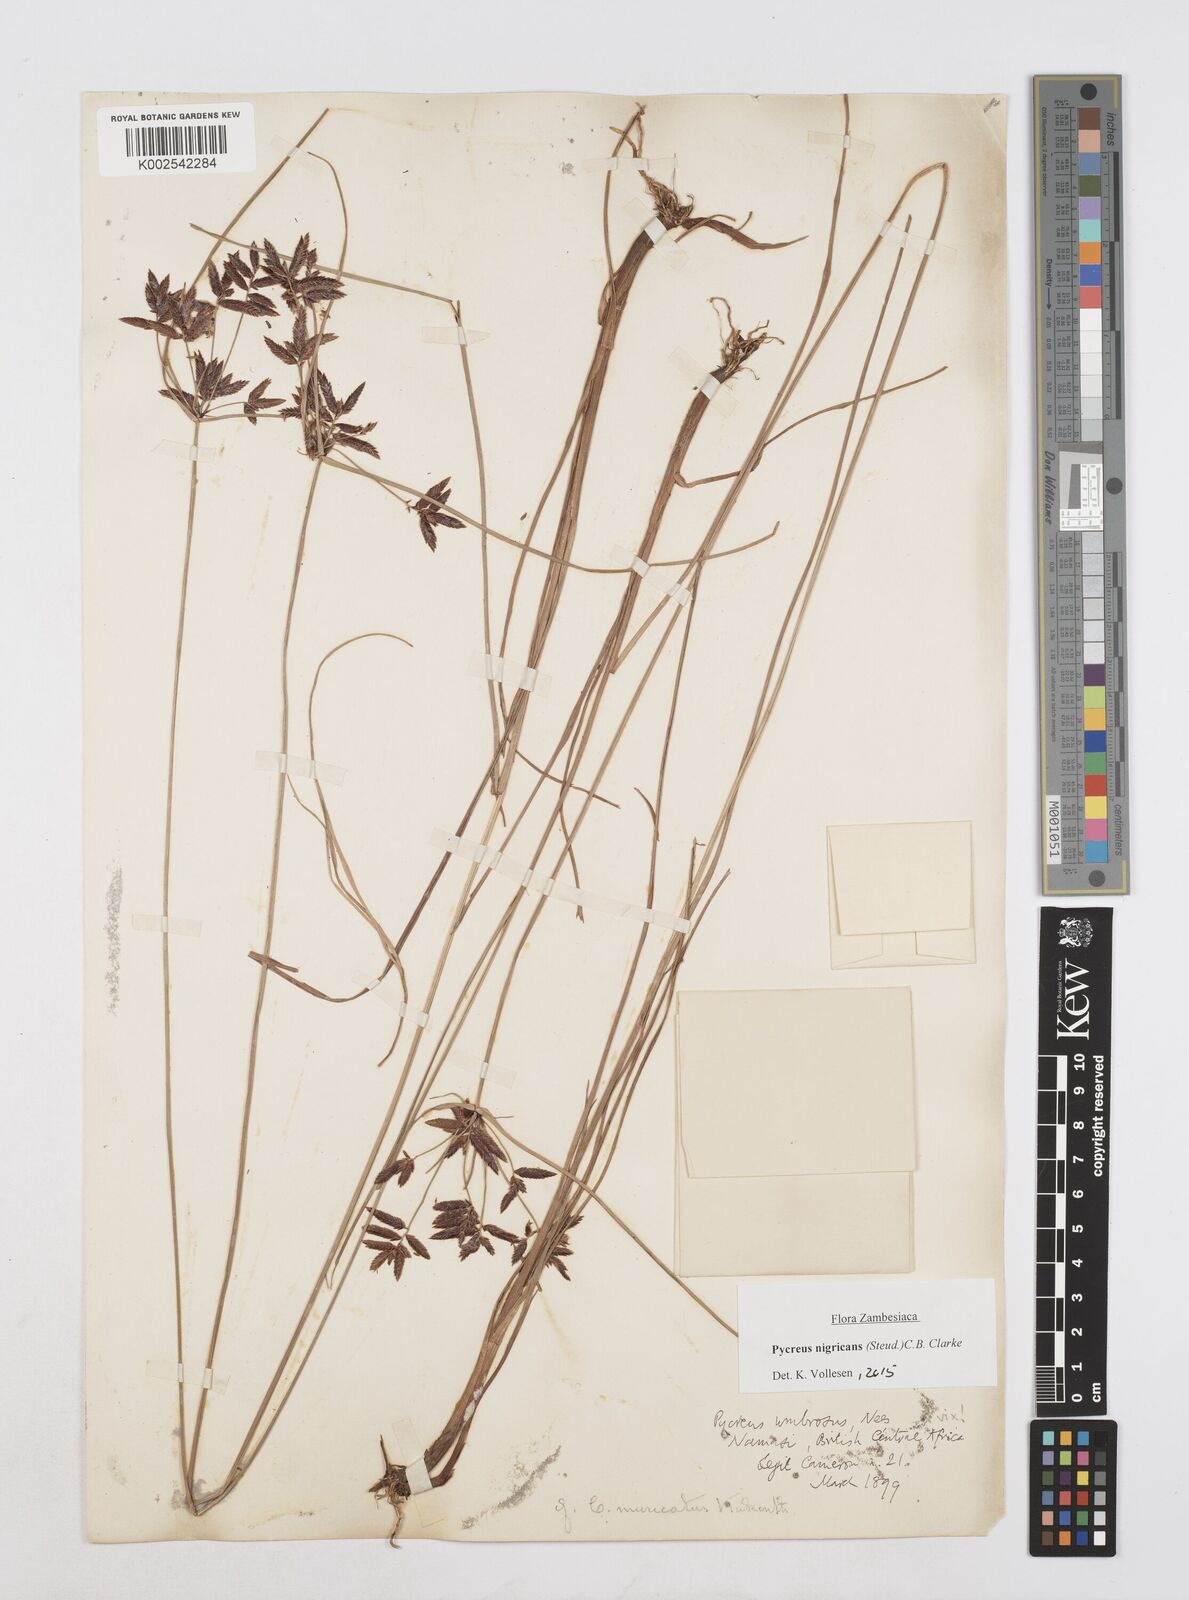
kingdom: Plantae
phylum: Tracheophyta
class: Liliopsida
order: Poales
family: Cyperaceae
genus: Cyperus
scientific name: Cyperus nigricans
